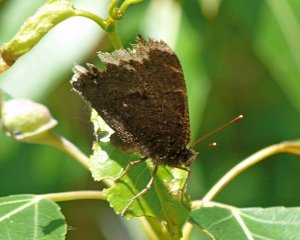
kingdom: Animalia
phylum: Arthropoda
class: Insecta
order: Lepidoptera
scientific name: Lepidoptera
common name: Butterflies
